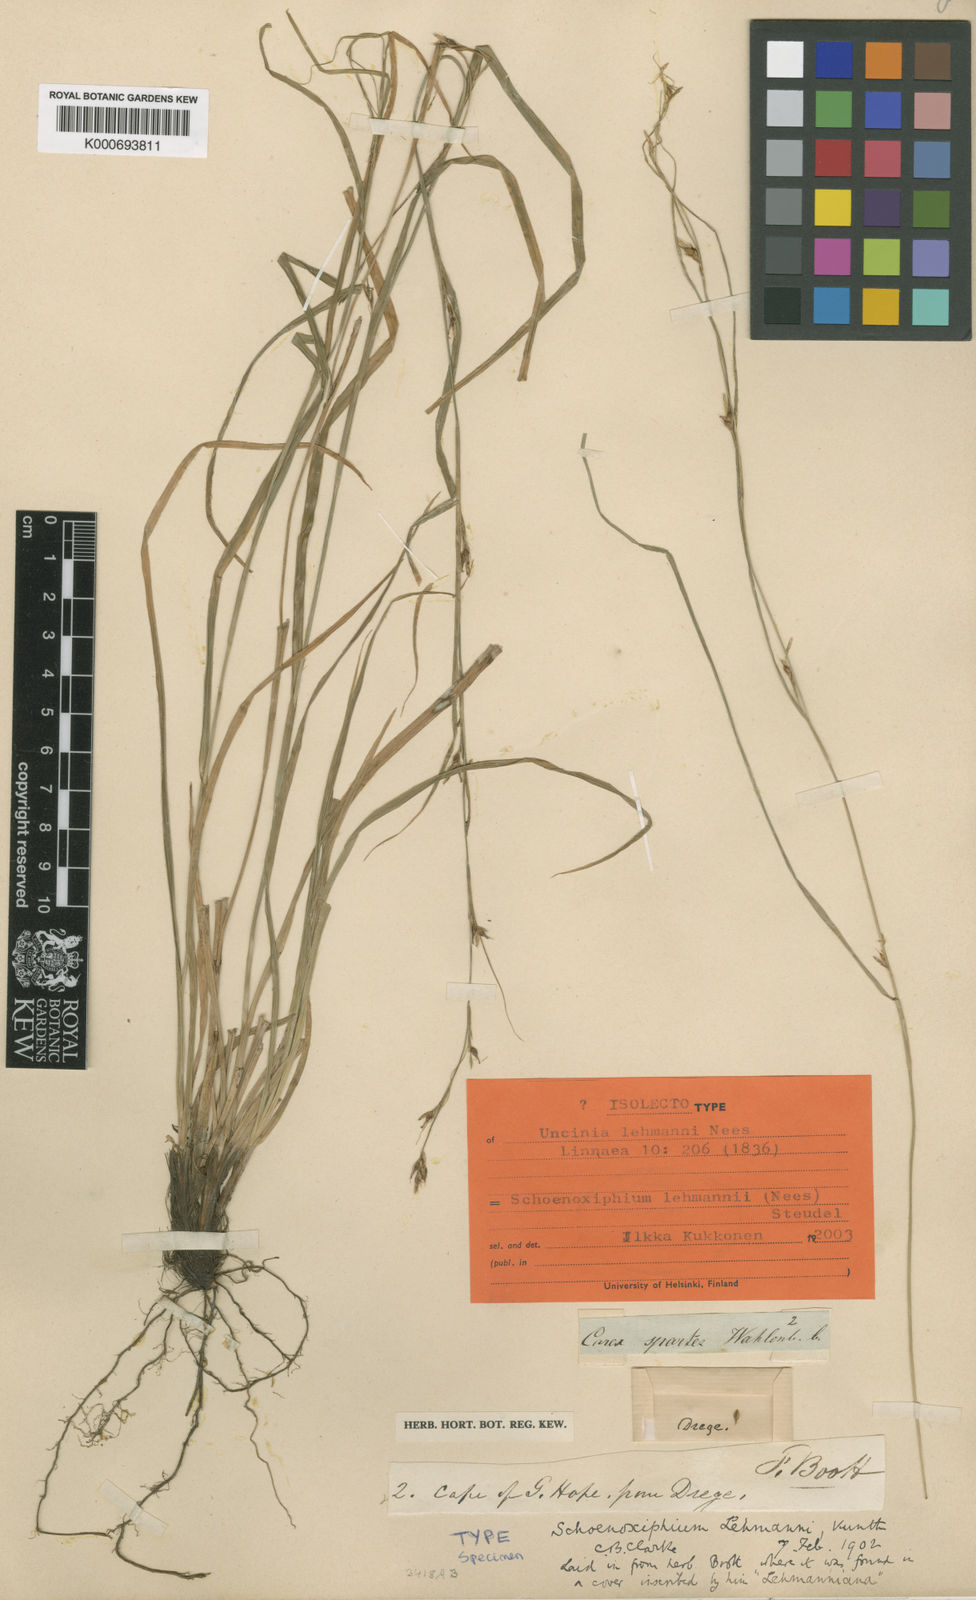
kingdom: Plantae
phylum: Tracheophyta
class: Liliopsida
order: Poales
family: Cyperaceae
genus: Carex
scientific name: Carex uhligii
